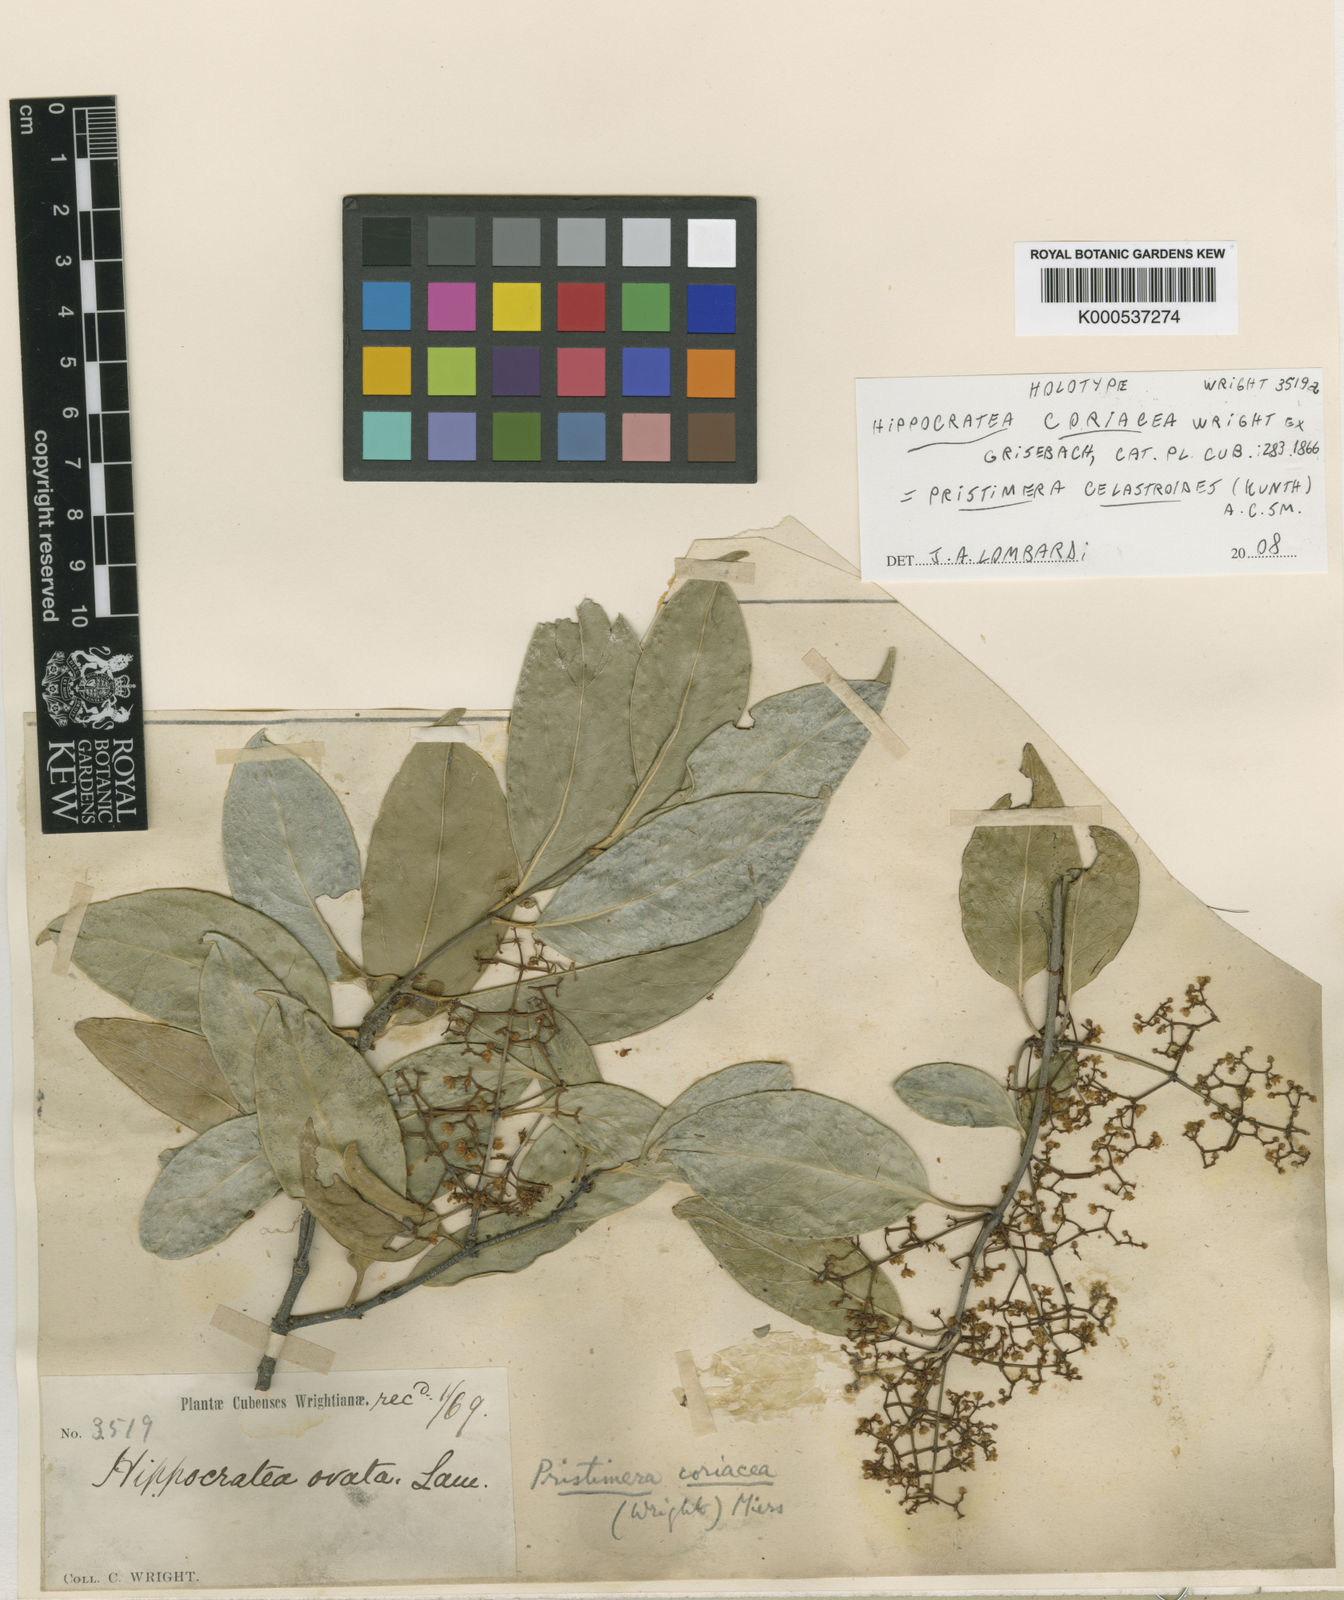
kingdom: Plantae
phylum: Tracheophyta
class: Magnoliopsida
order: Celastrales
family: Celastraceae
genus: Pristimera
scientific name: Pristimera celastroides
